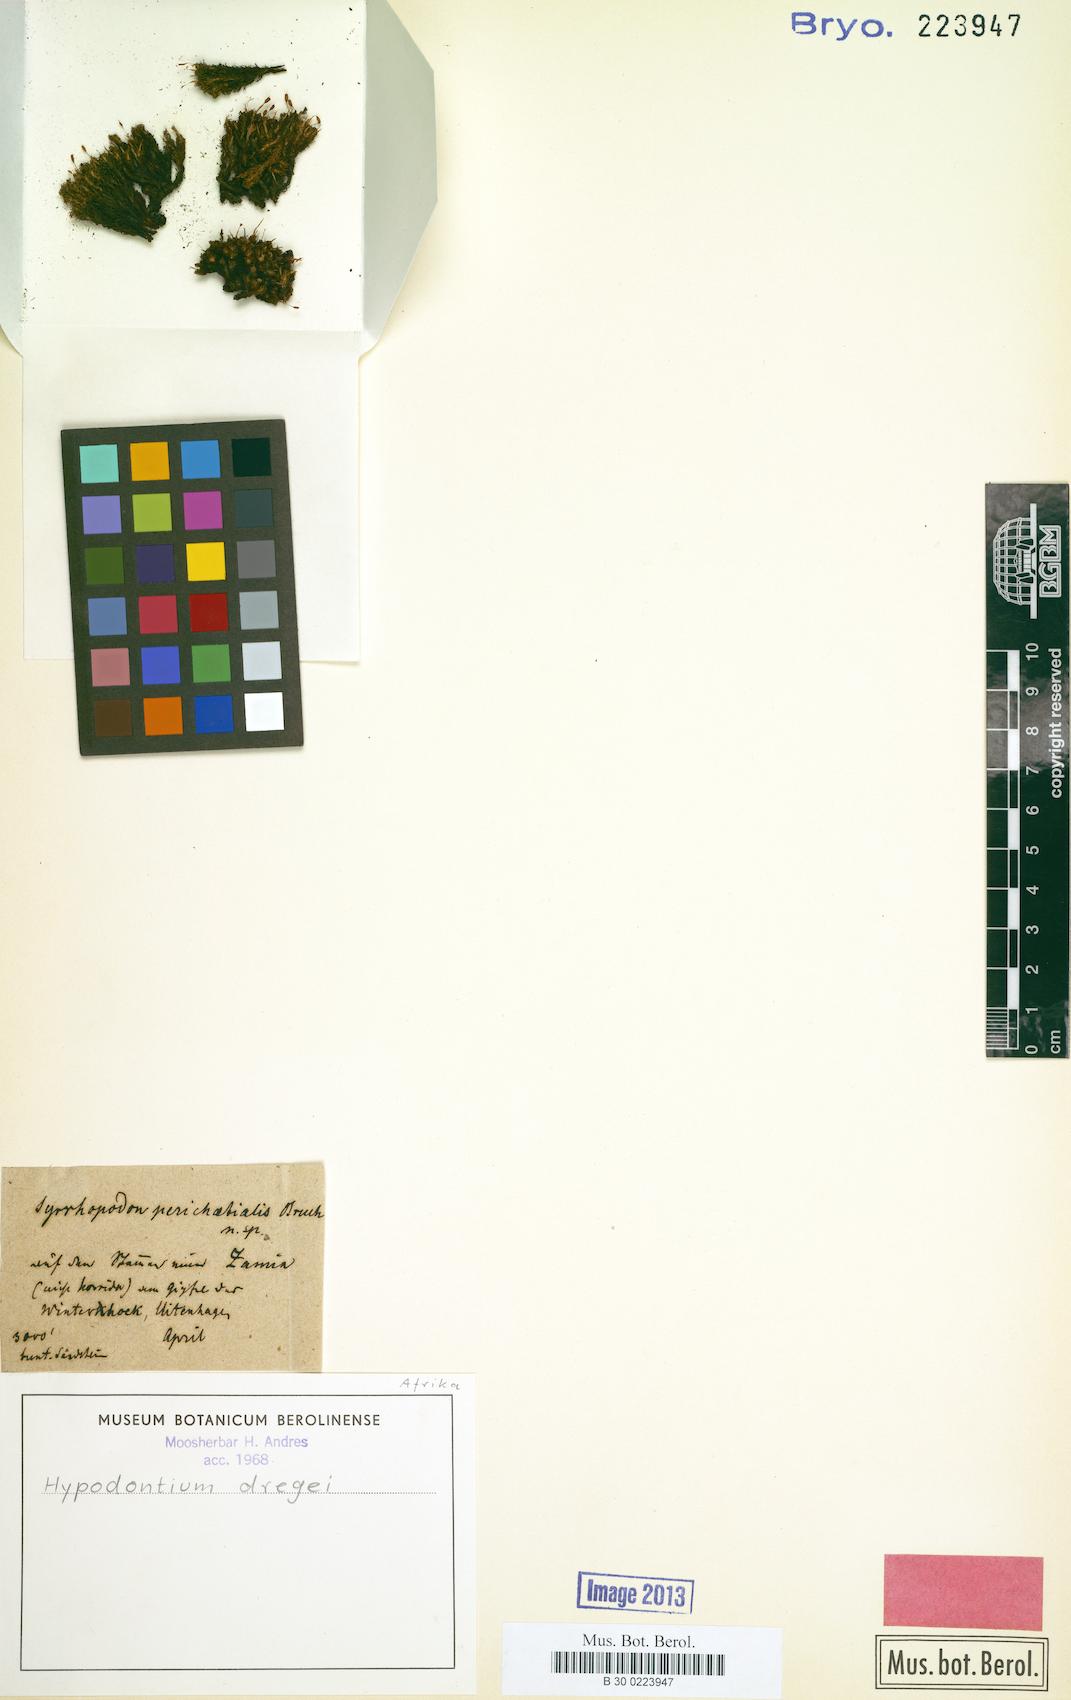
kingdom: Plantae
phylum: Bryophyta
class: Bryopsida
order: Dicranales
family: Hypodontiaceae
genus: Hypodontium
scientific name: Hypodontium dregei
